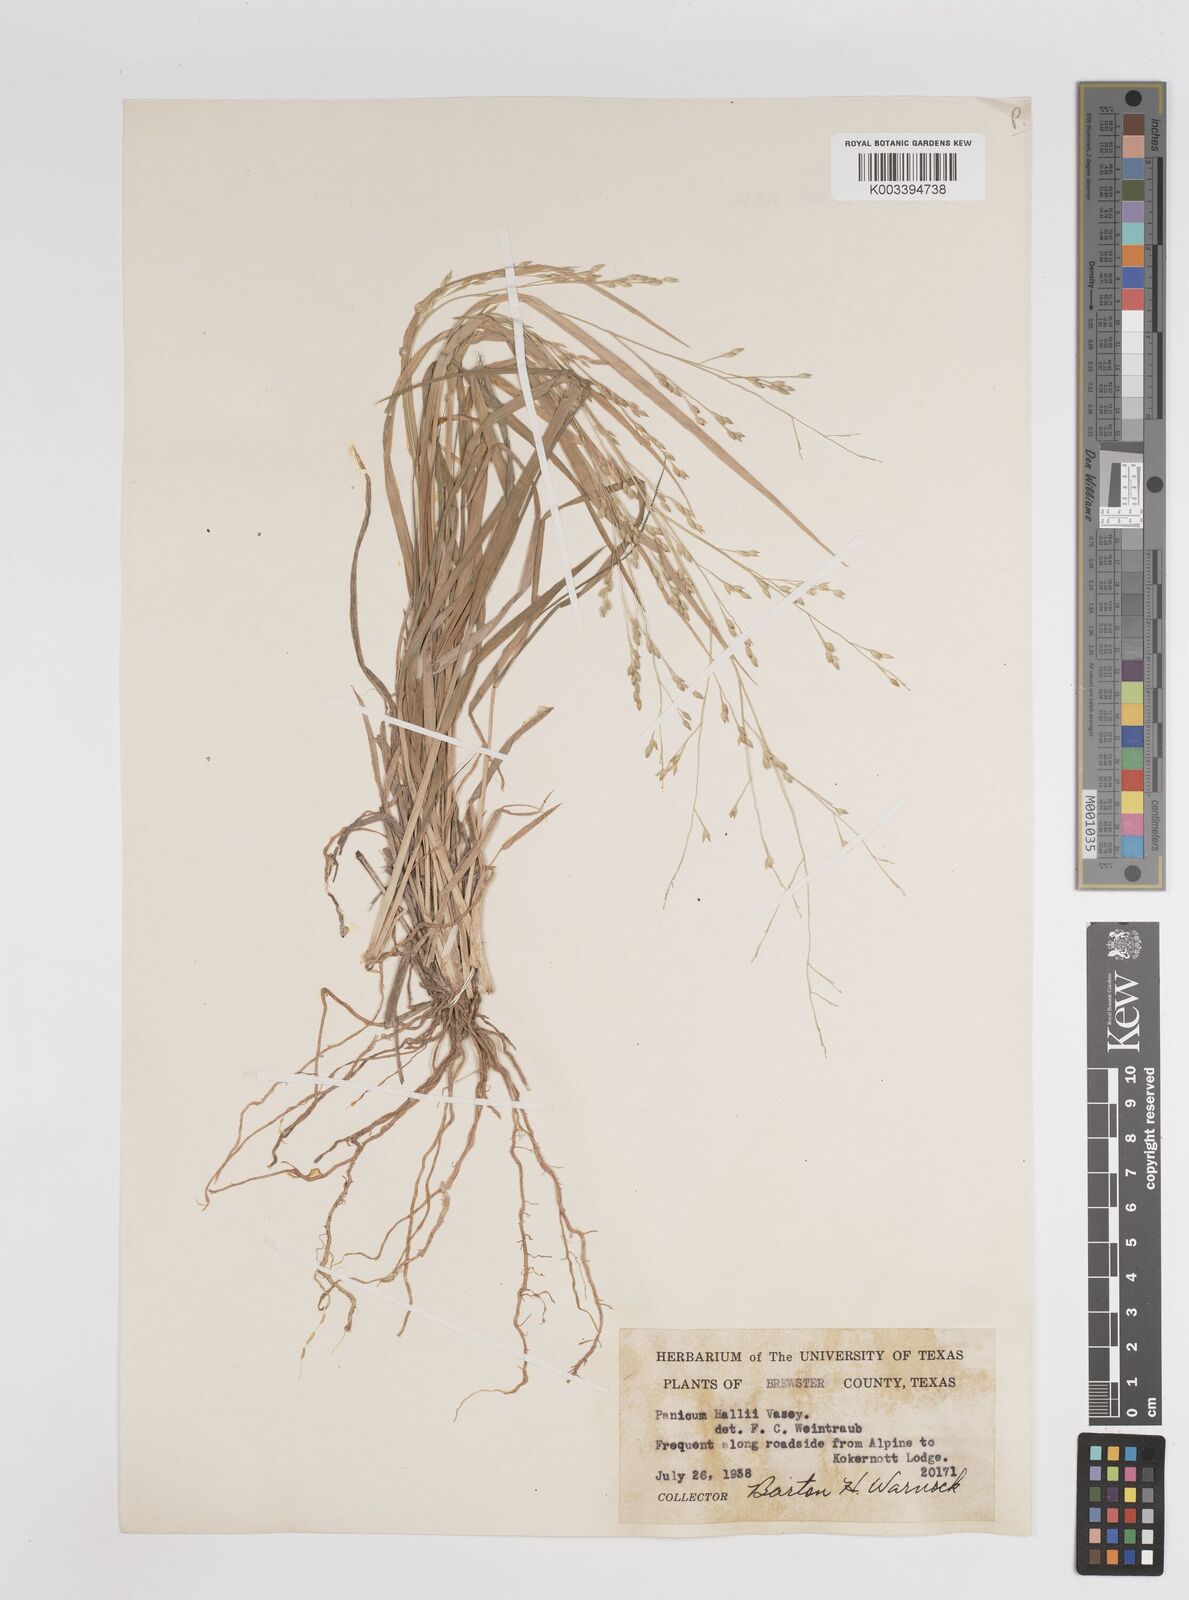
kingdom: Plantae
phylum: Tracheophyta
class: Liliopsida
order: Poales
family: Poaceae
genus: Panicum
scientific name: Panicum hallii
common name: Hall's witchgrass
